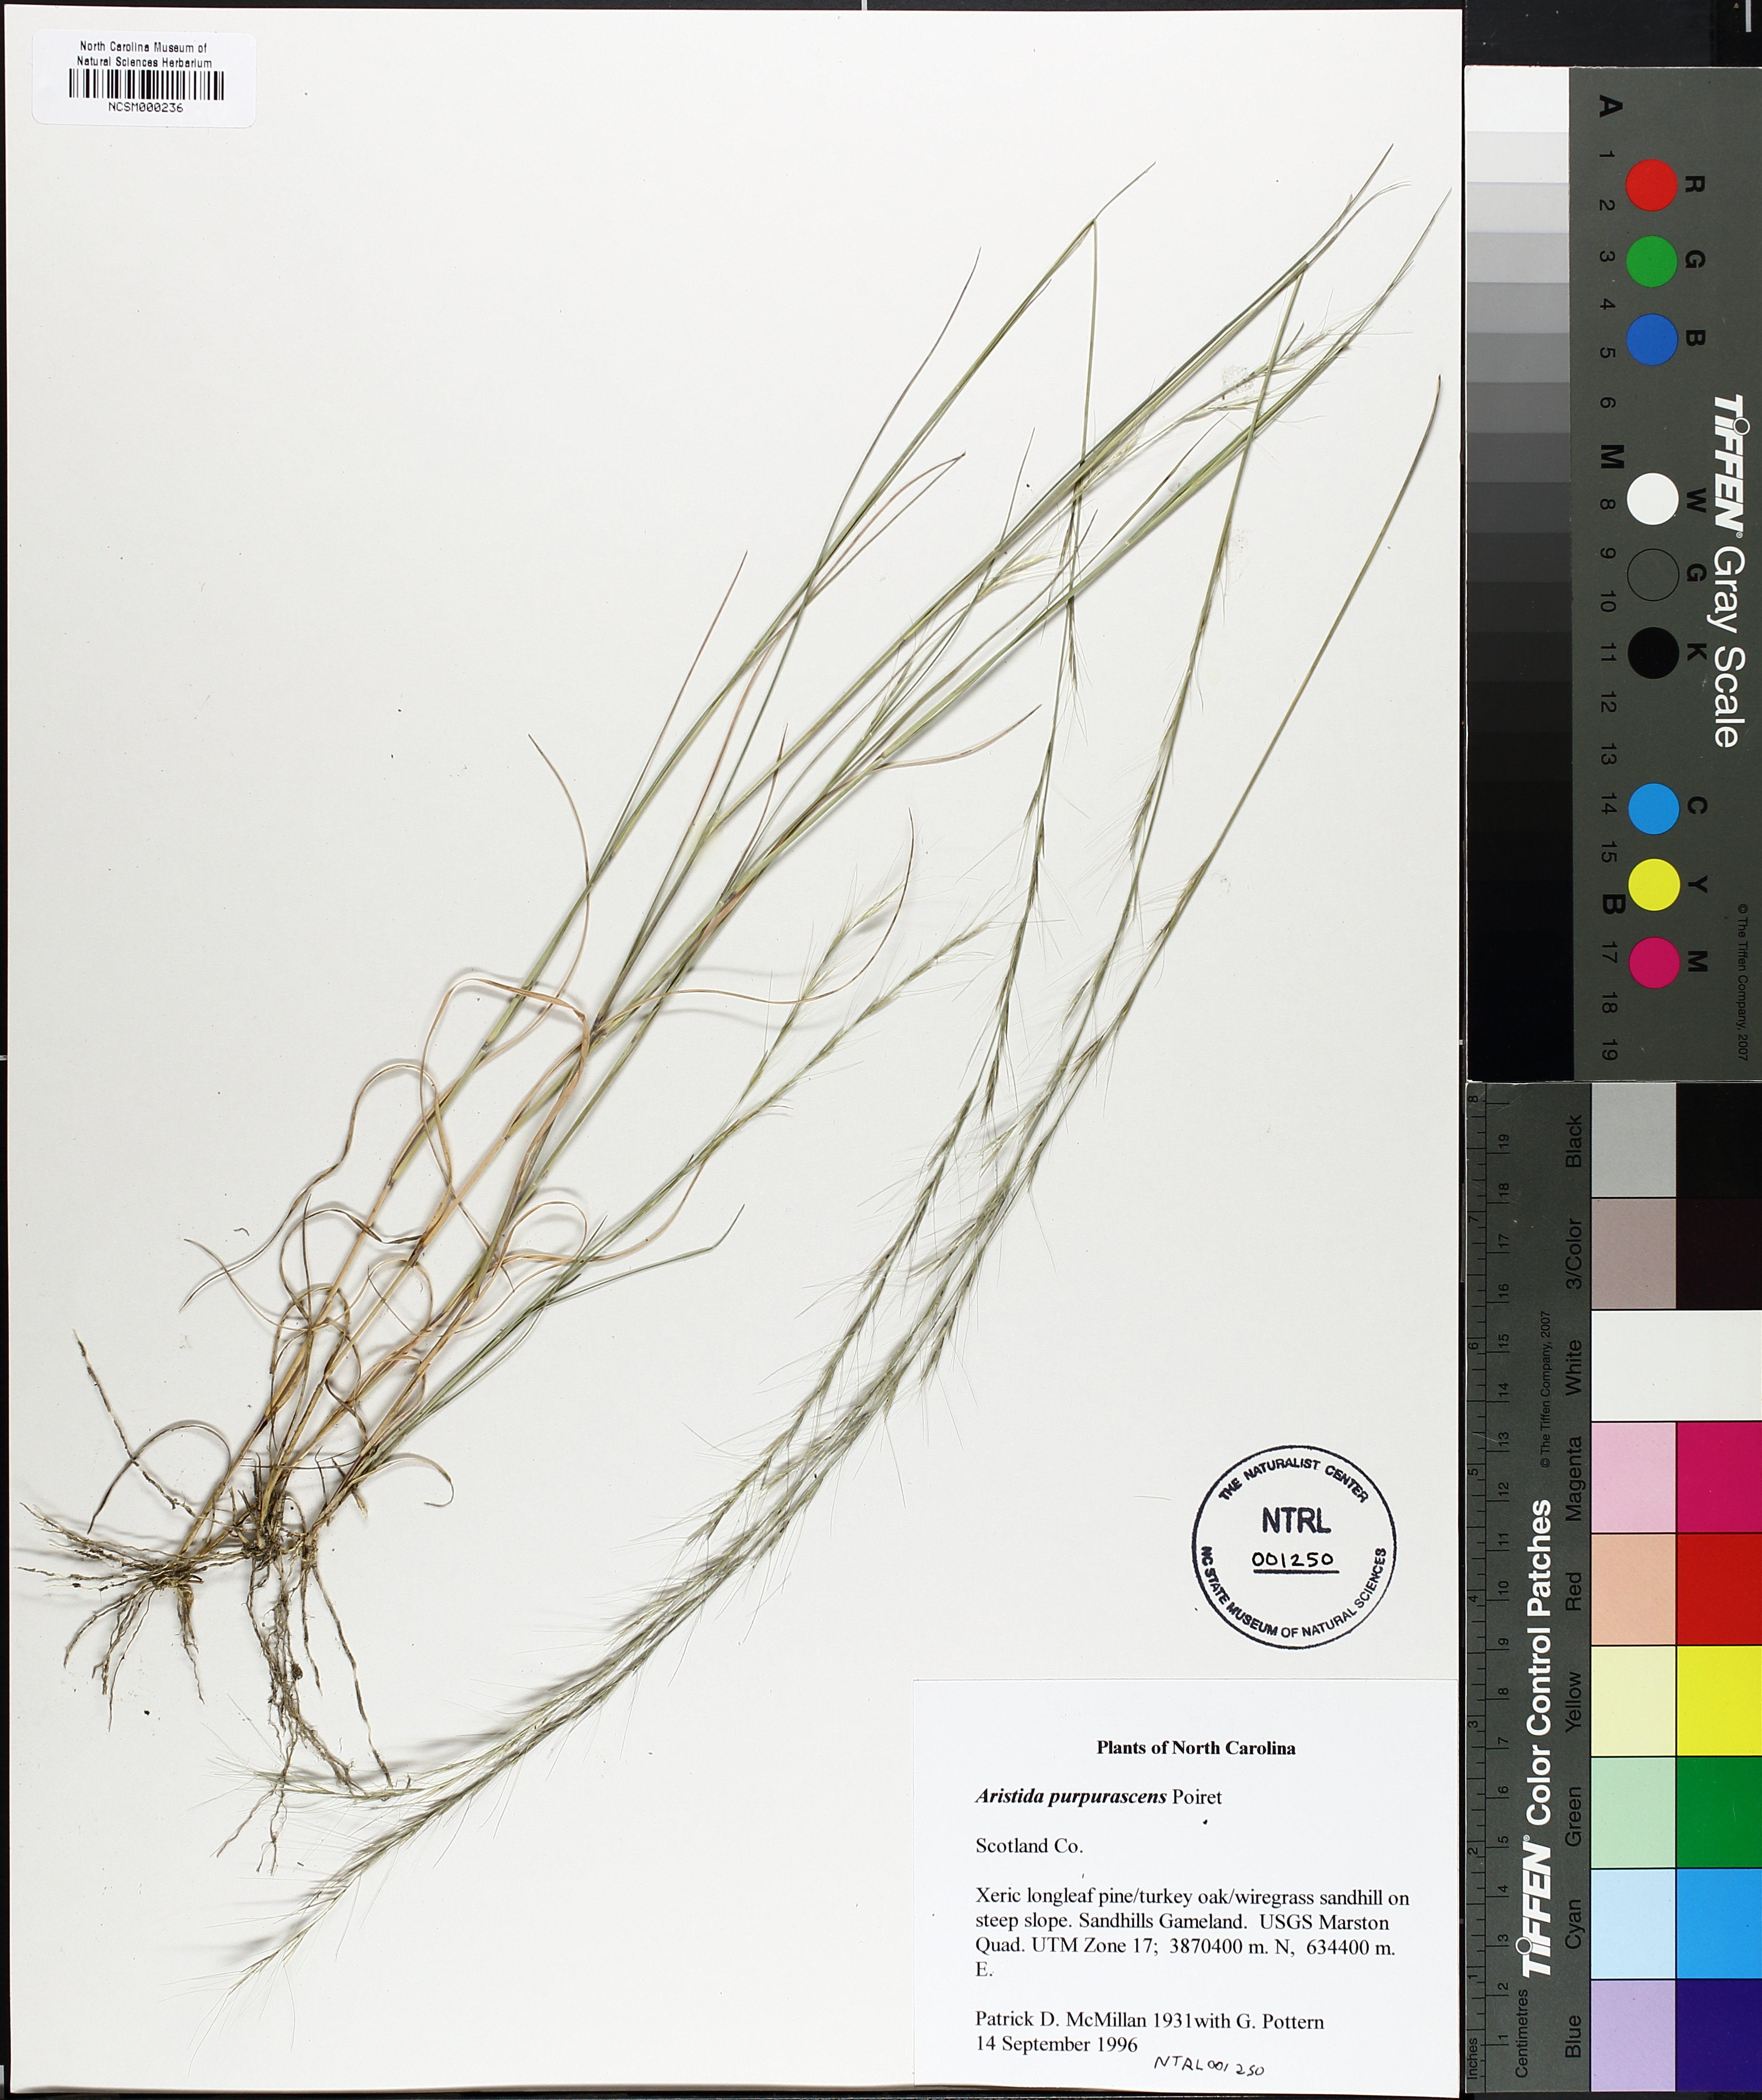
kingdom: Plantae
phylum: Tracheophyta
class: Liliopsida
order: Poales
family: Poaceae
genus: Aristida
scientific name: Aristida purpurascens
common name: Arrow-feather
